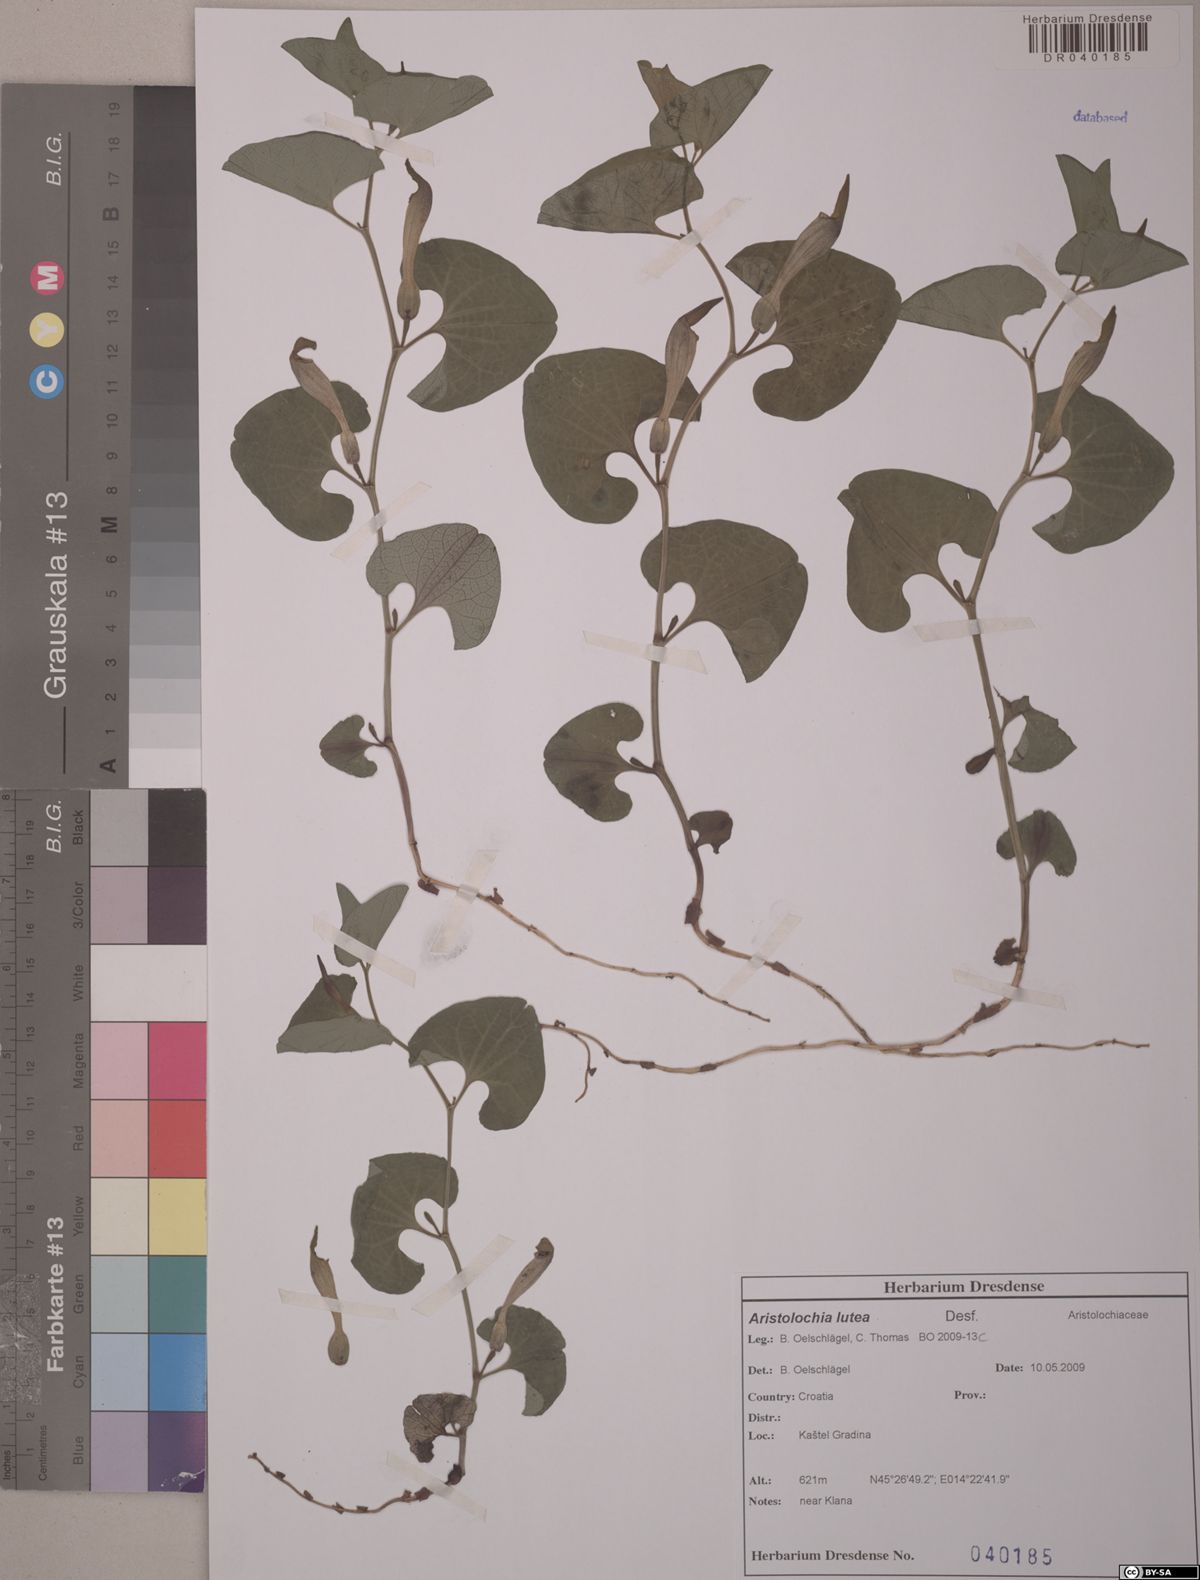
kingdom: Plantae
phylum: Tracheophyta
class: Magnoliopsida
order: Piperales
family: Aristolochiaceae
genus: Aristolochia
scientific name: Aristolochia lutea
